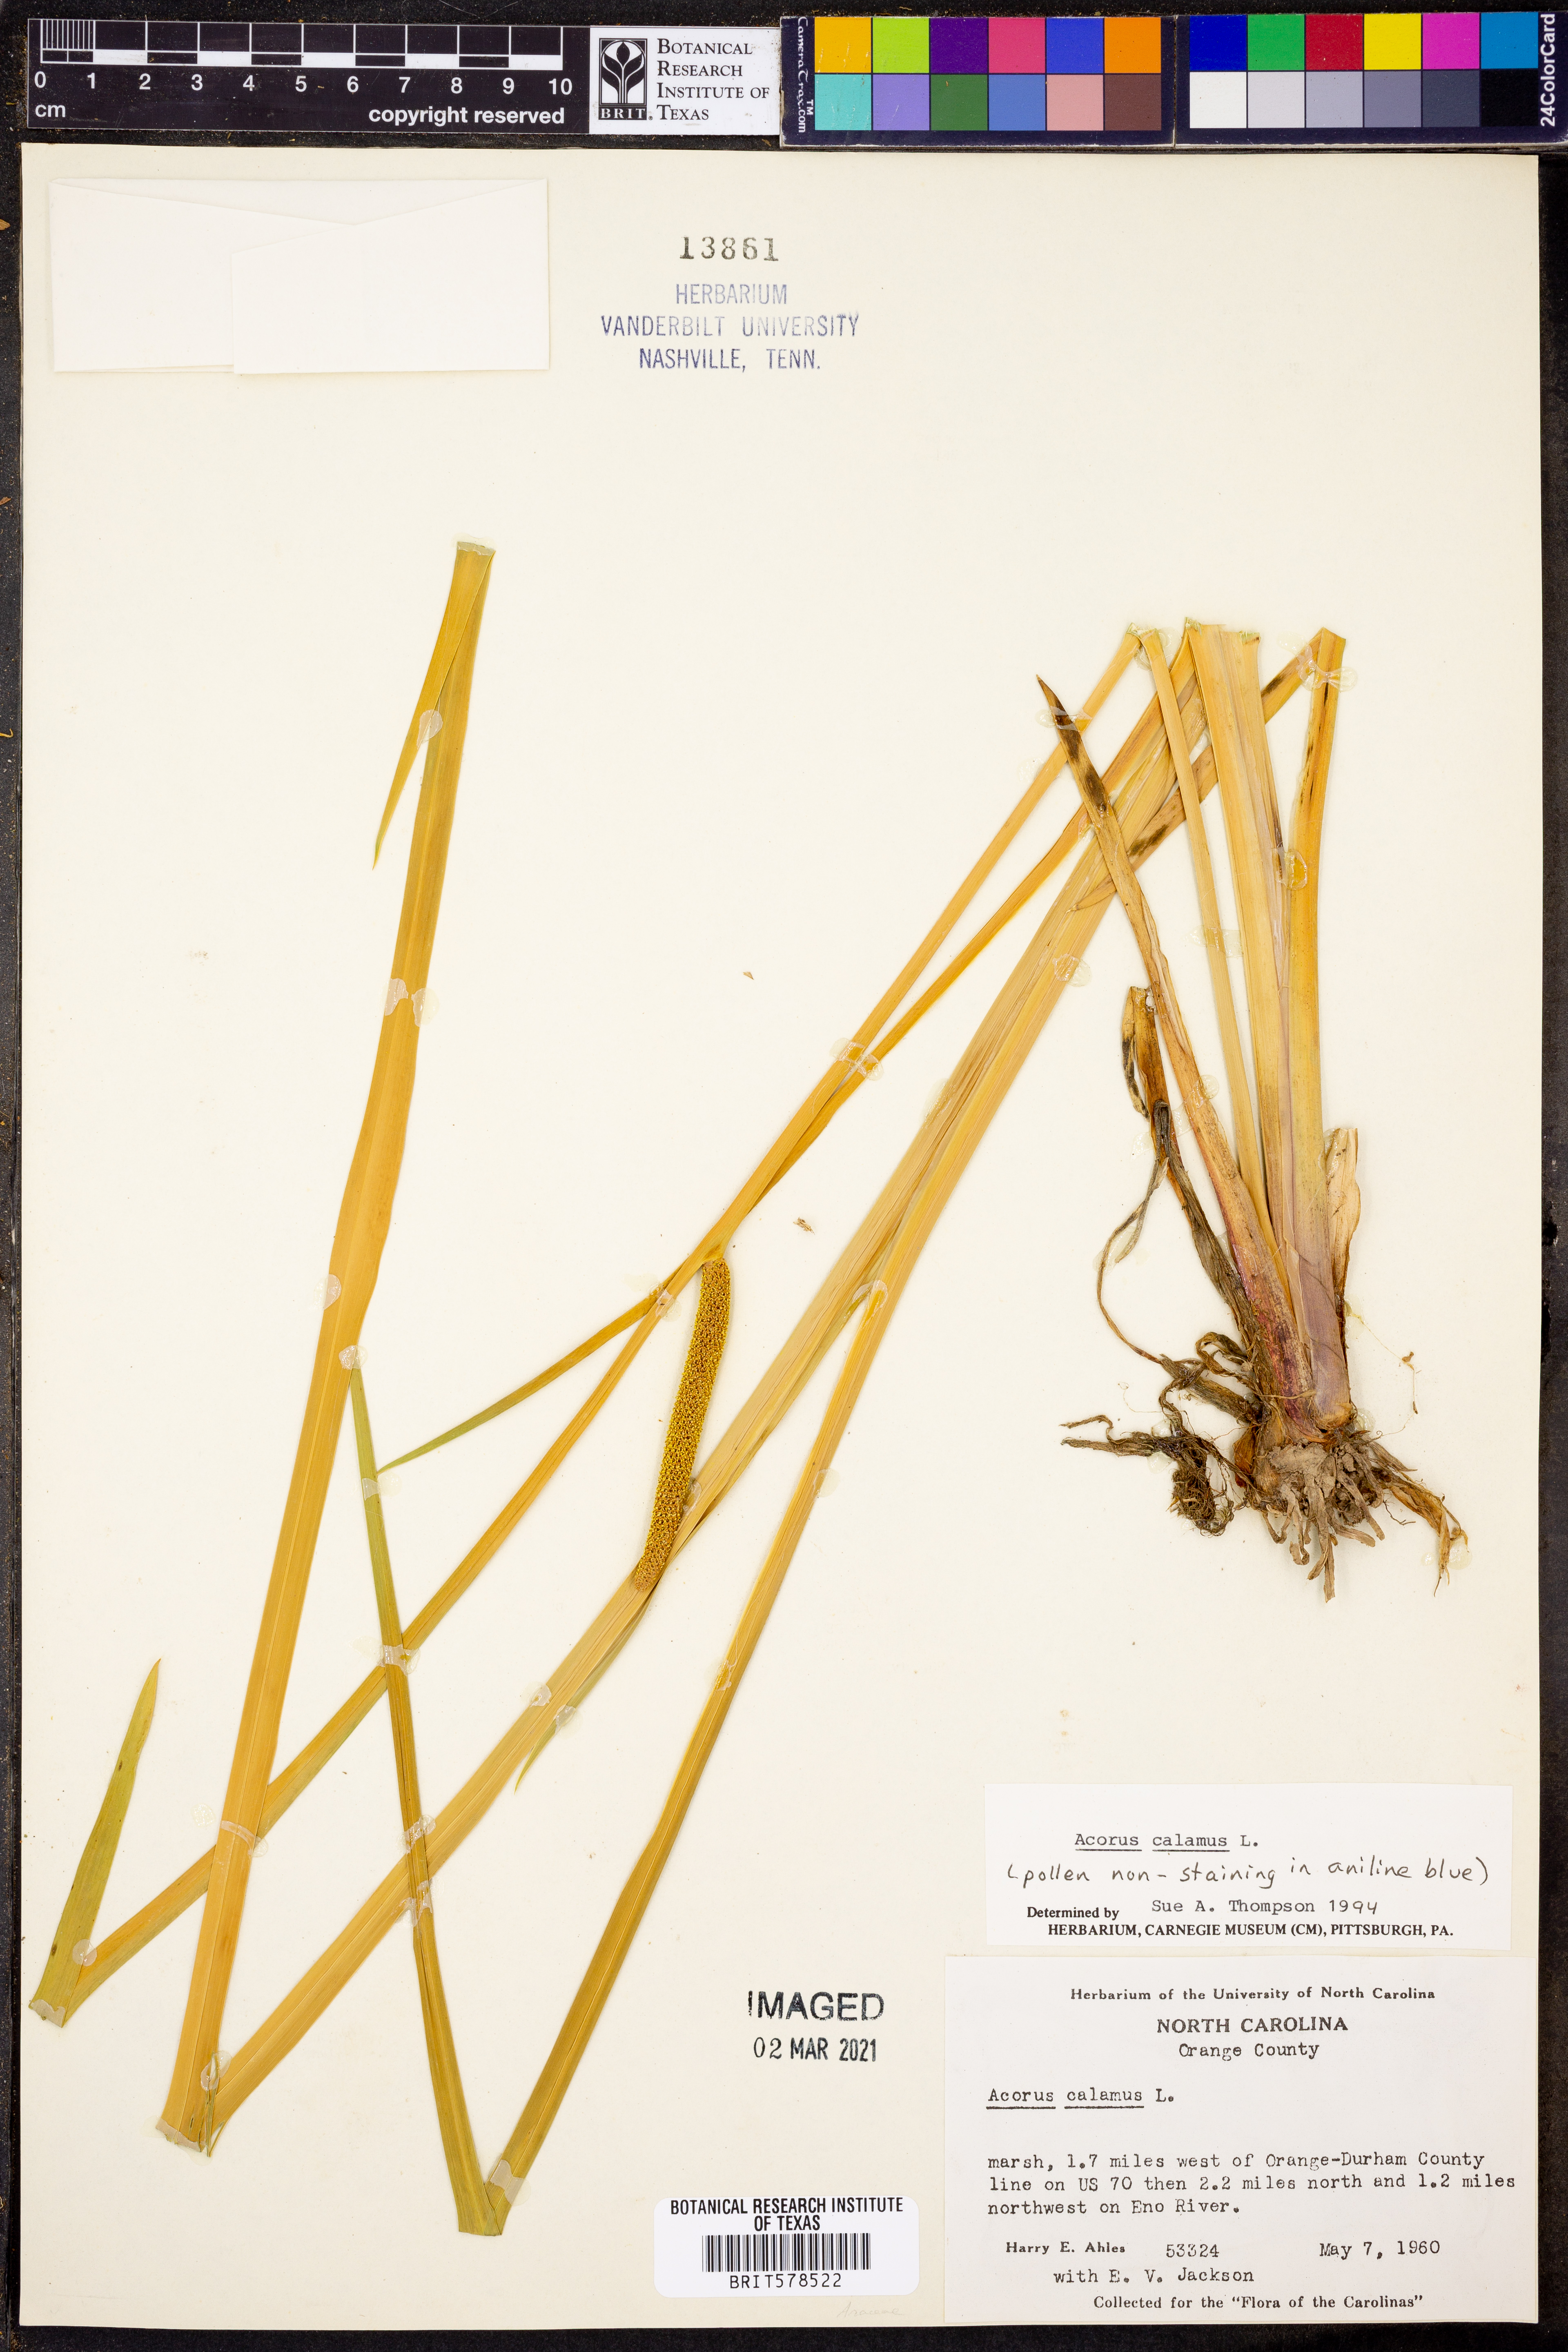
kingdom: Plantae
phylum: Tracheophyta
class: Liliopsida
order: Acorales
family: Acoraceae
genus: Acorus
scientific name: Acorus calamus
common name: Sweet-flag
